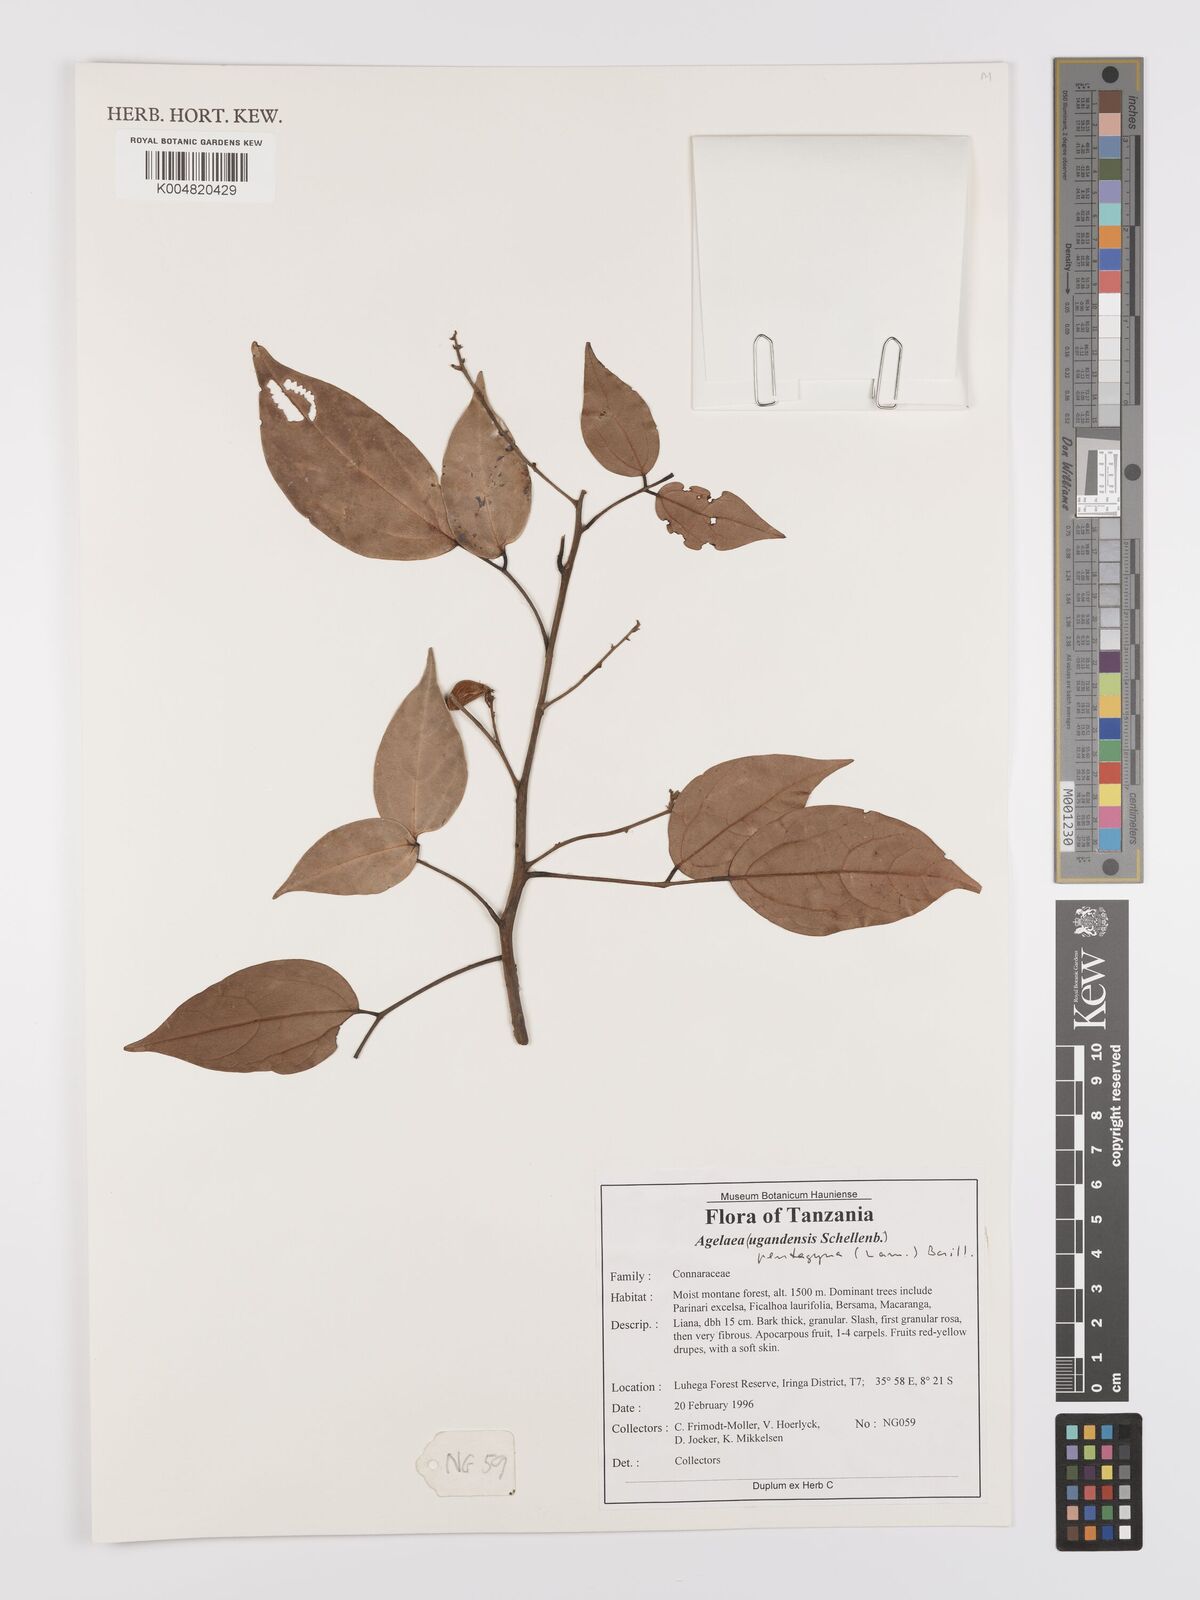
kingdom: Plantae
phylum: Tracheophyta
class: Magnoliopsida
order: Oxalidales
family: Connaraceae
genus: Agelaea
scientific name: Agelaea pentagyna
